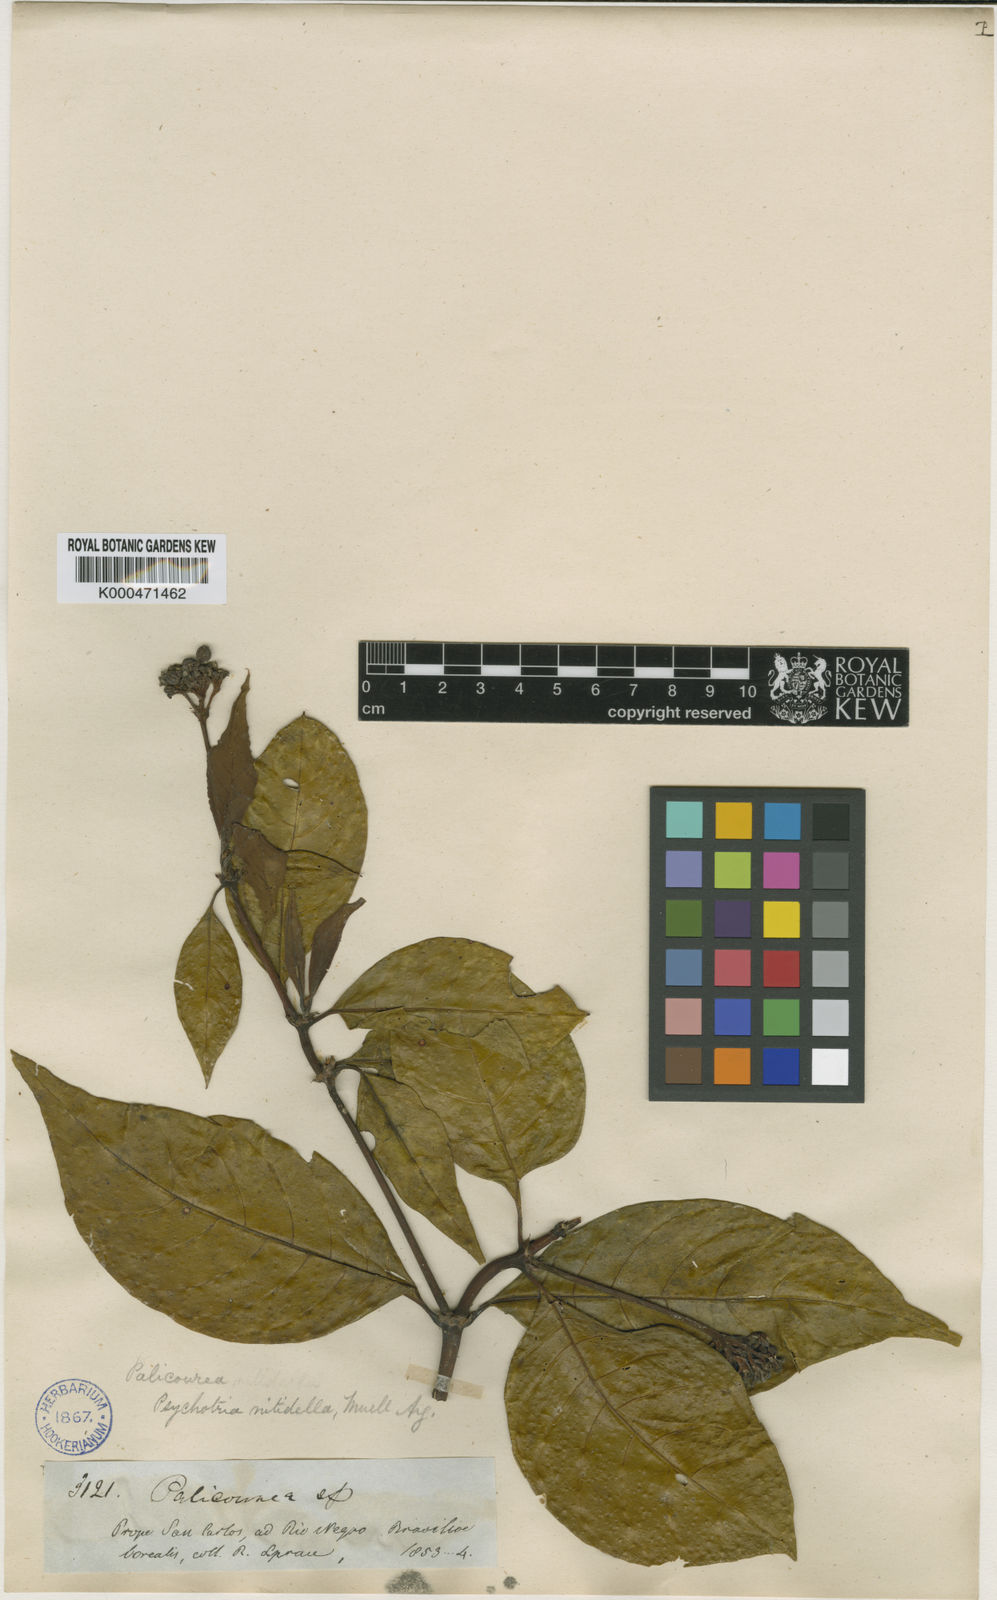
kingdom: Plantae
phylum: Tracheophyta
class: Magnoliopsida
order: Gentianales
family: Rubiaceae
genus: Palicourea
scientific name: Palicourea
